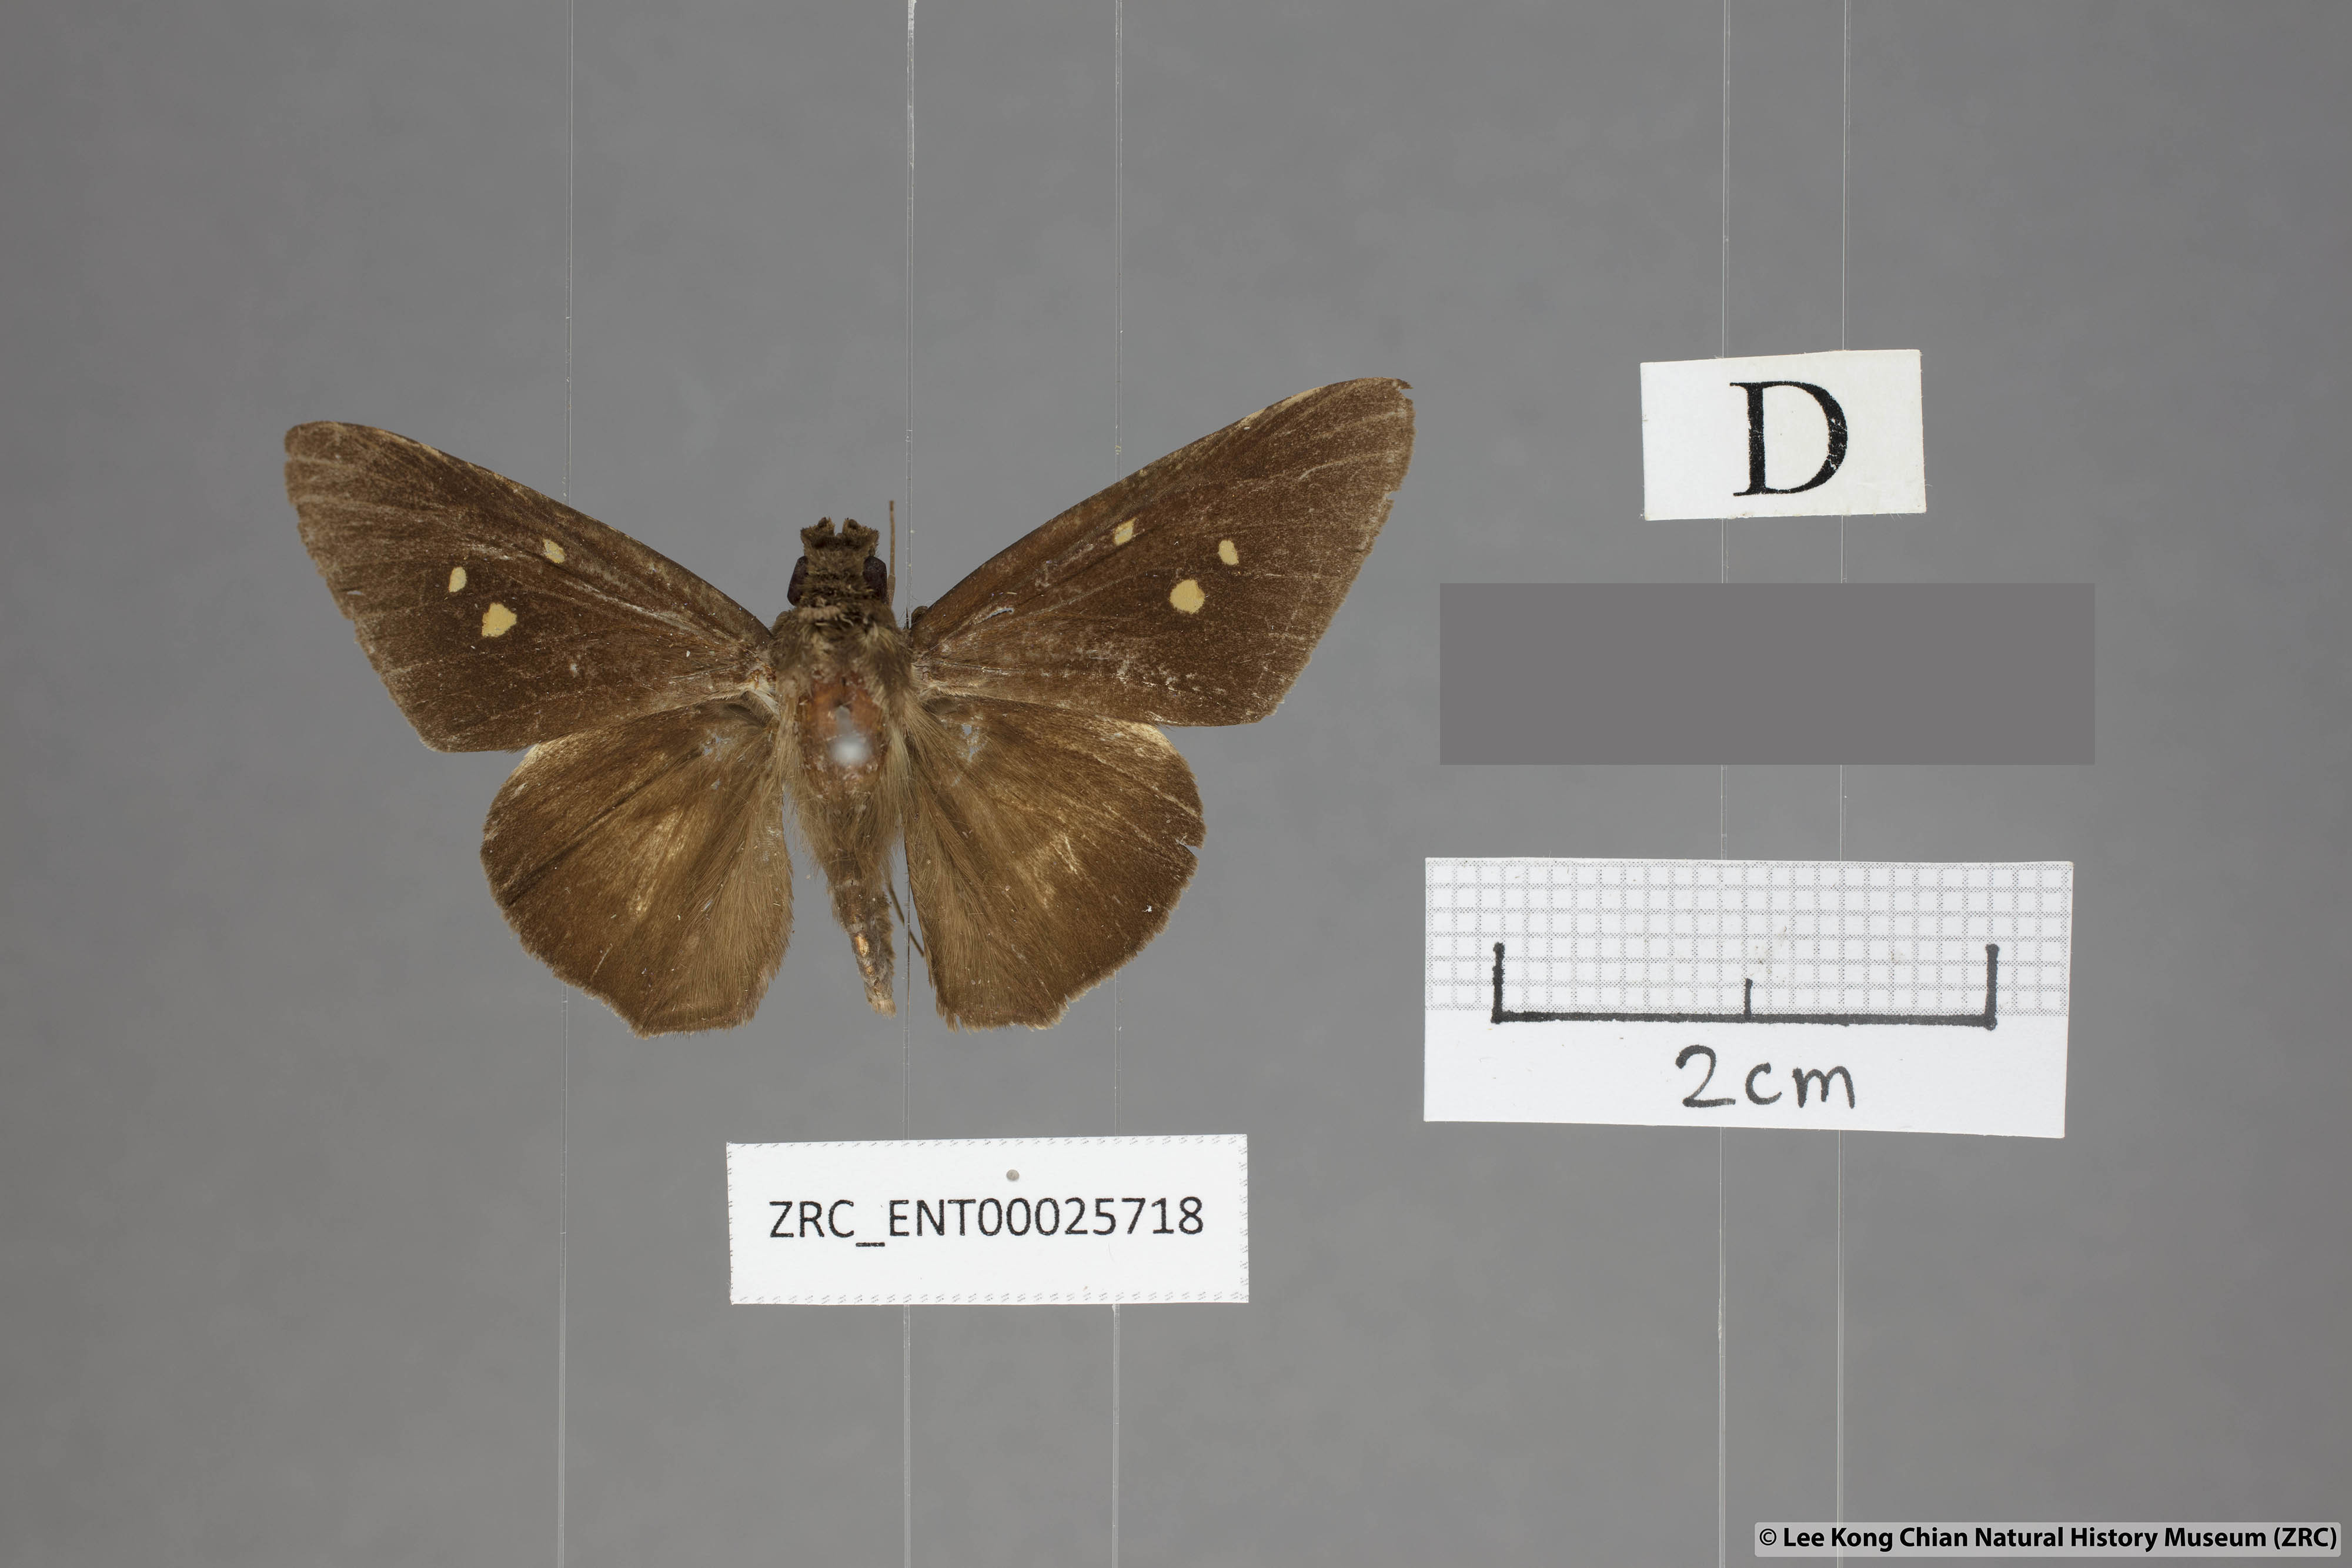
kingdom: Animalia
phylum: Arthropoda
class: Insecta
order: Lepidoptera
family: Hesperiidae
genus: Unkana
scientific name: Unkana mytheca
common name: Silver and yellow palmer
